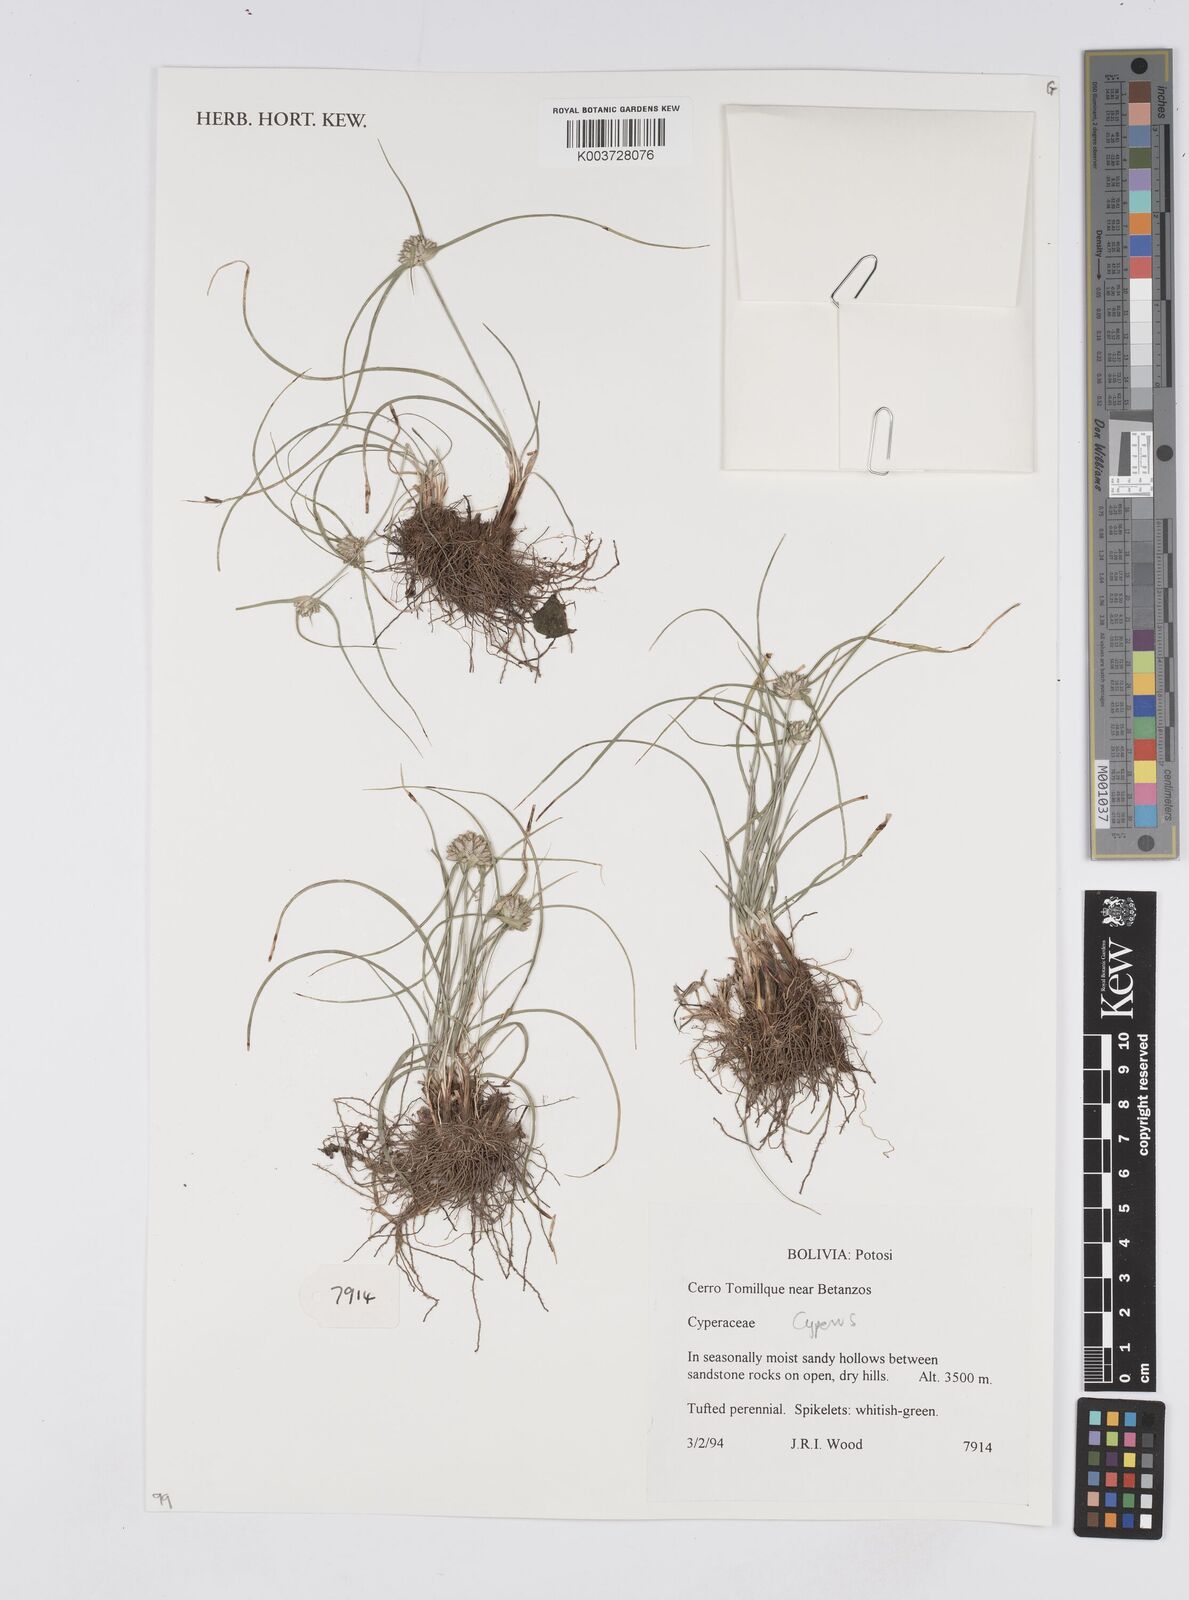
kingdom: Plantae
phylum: Tracheophyta
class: Liliopsida
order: Poales
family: Cyperaceae
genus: Cyperus
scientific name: Cyperus
